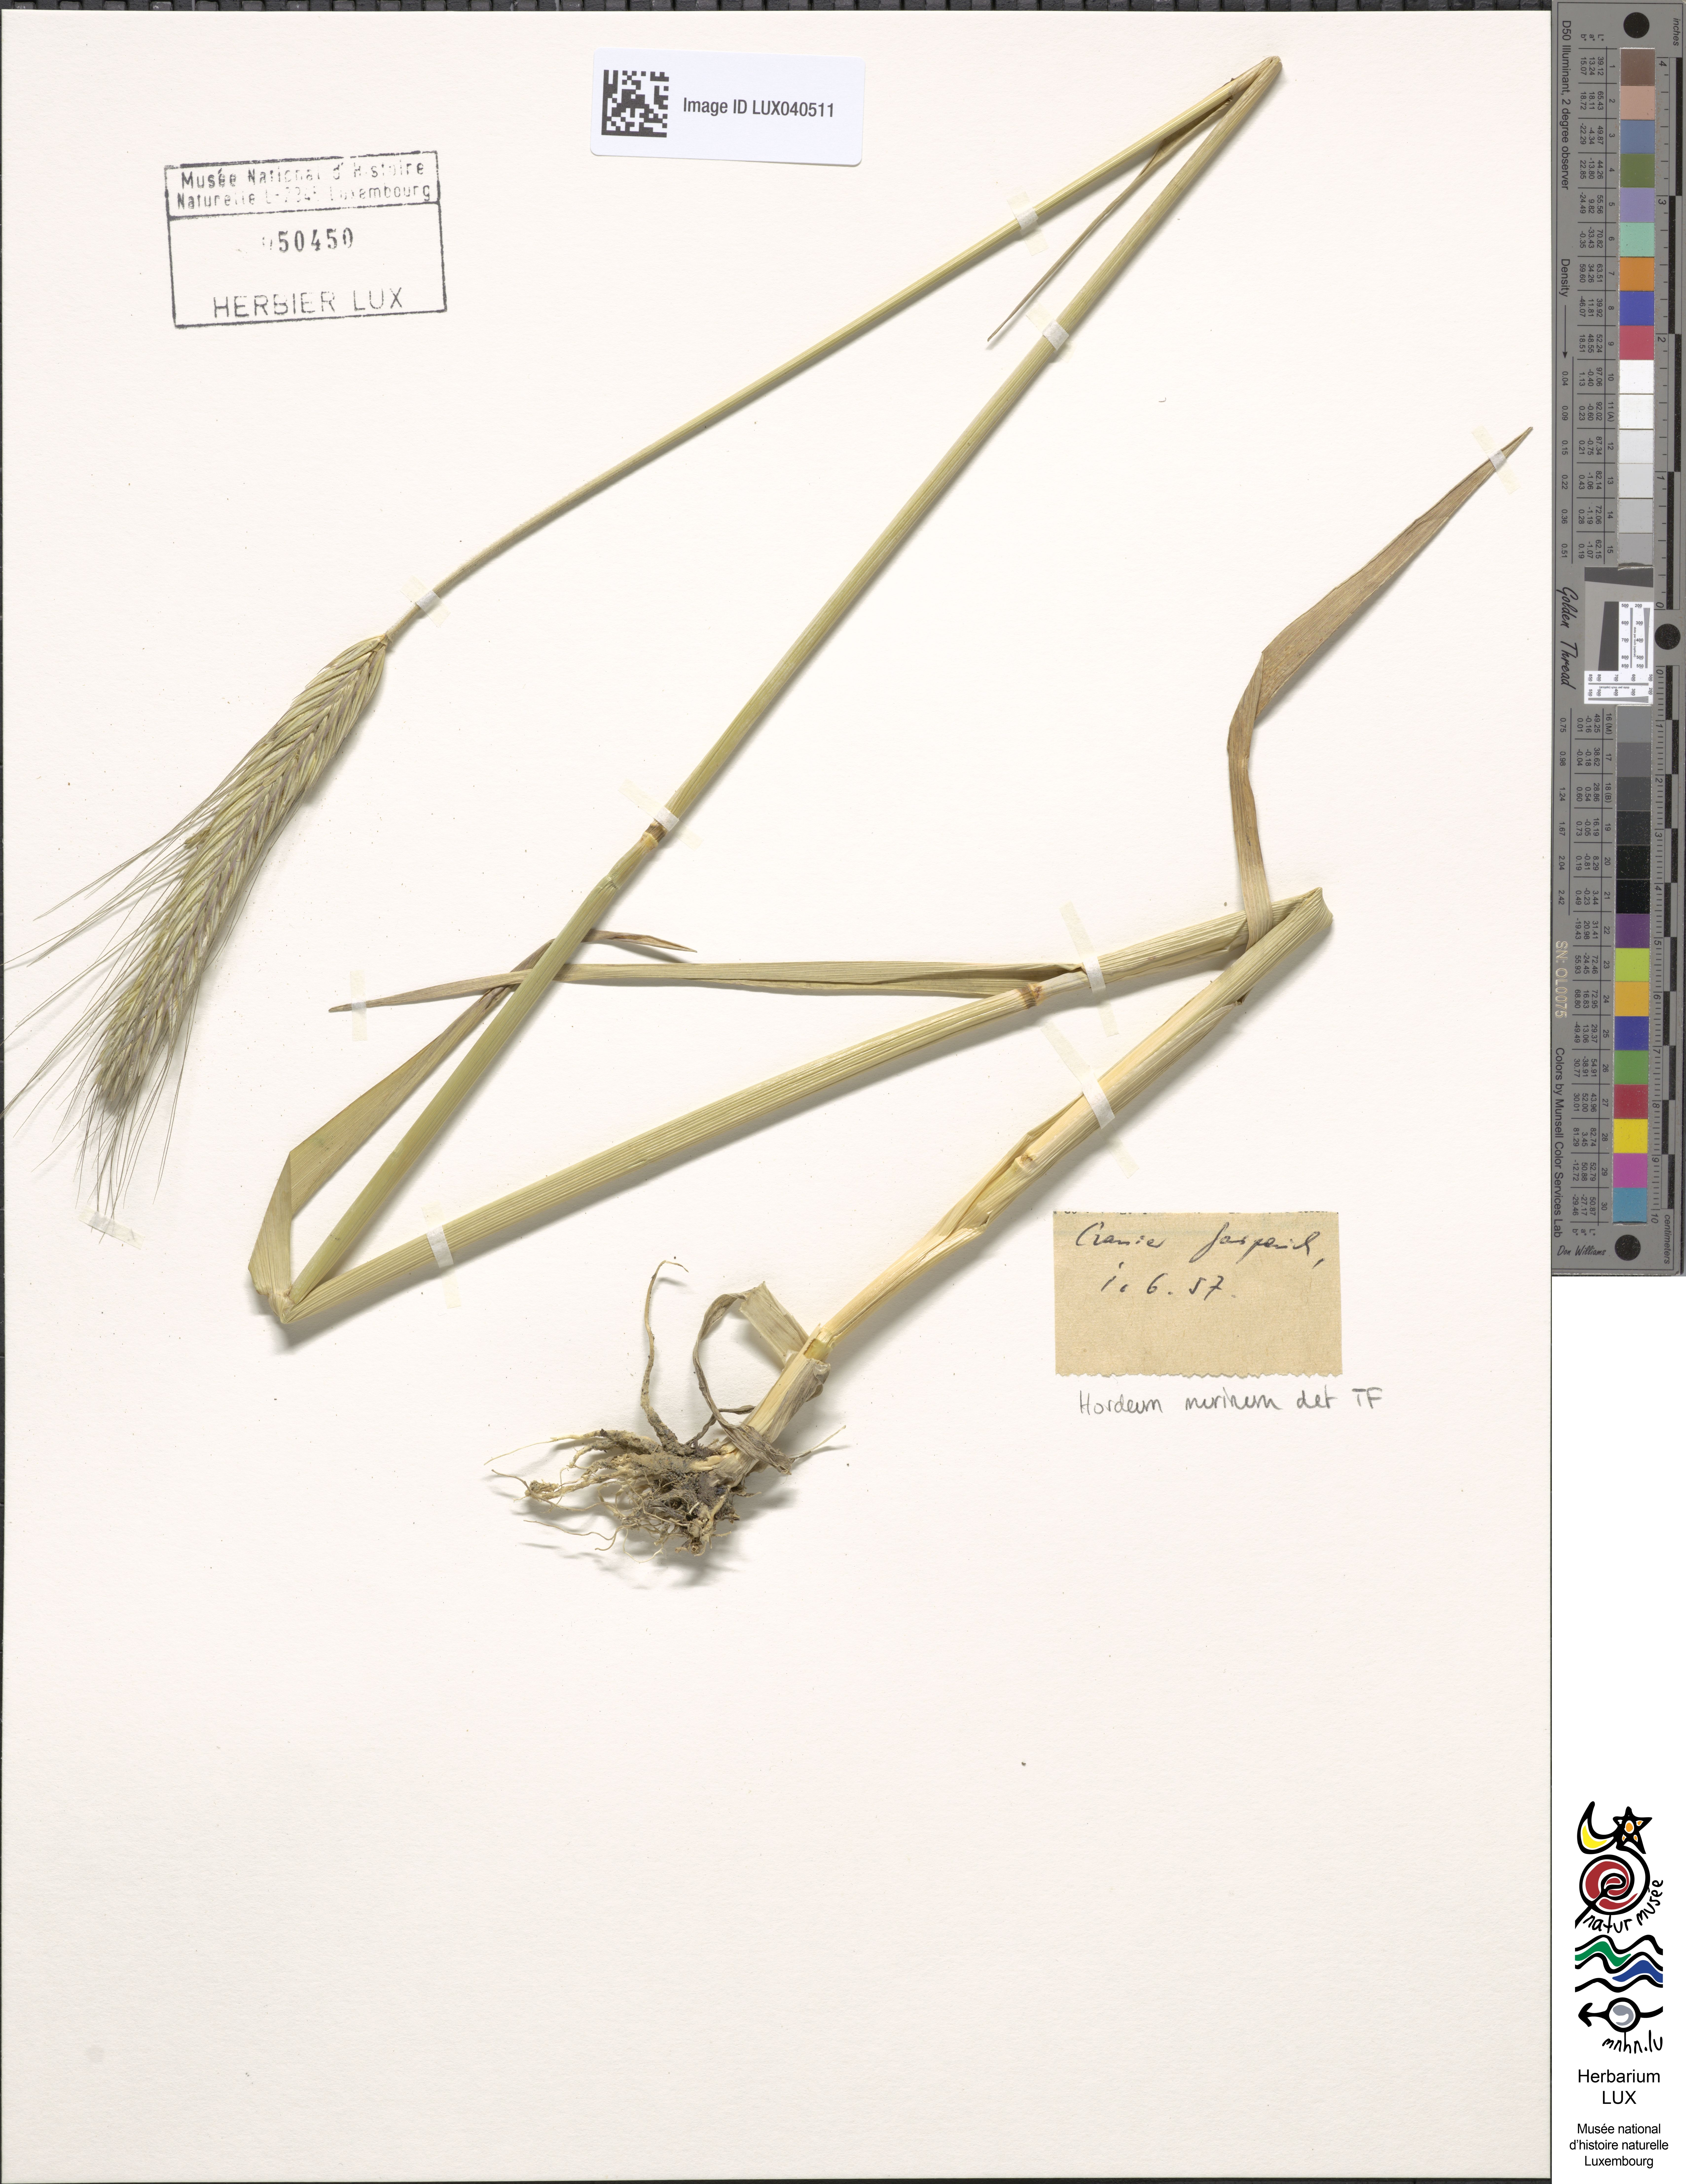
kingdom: Plantae
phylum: Tracheophyta
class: Liliopsida
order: Poales
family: Poaceae
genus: Hordeum
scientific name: Hordeum murinum
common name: Wall barley
